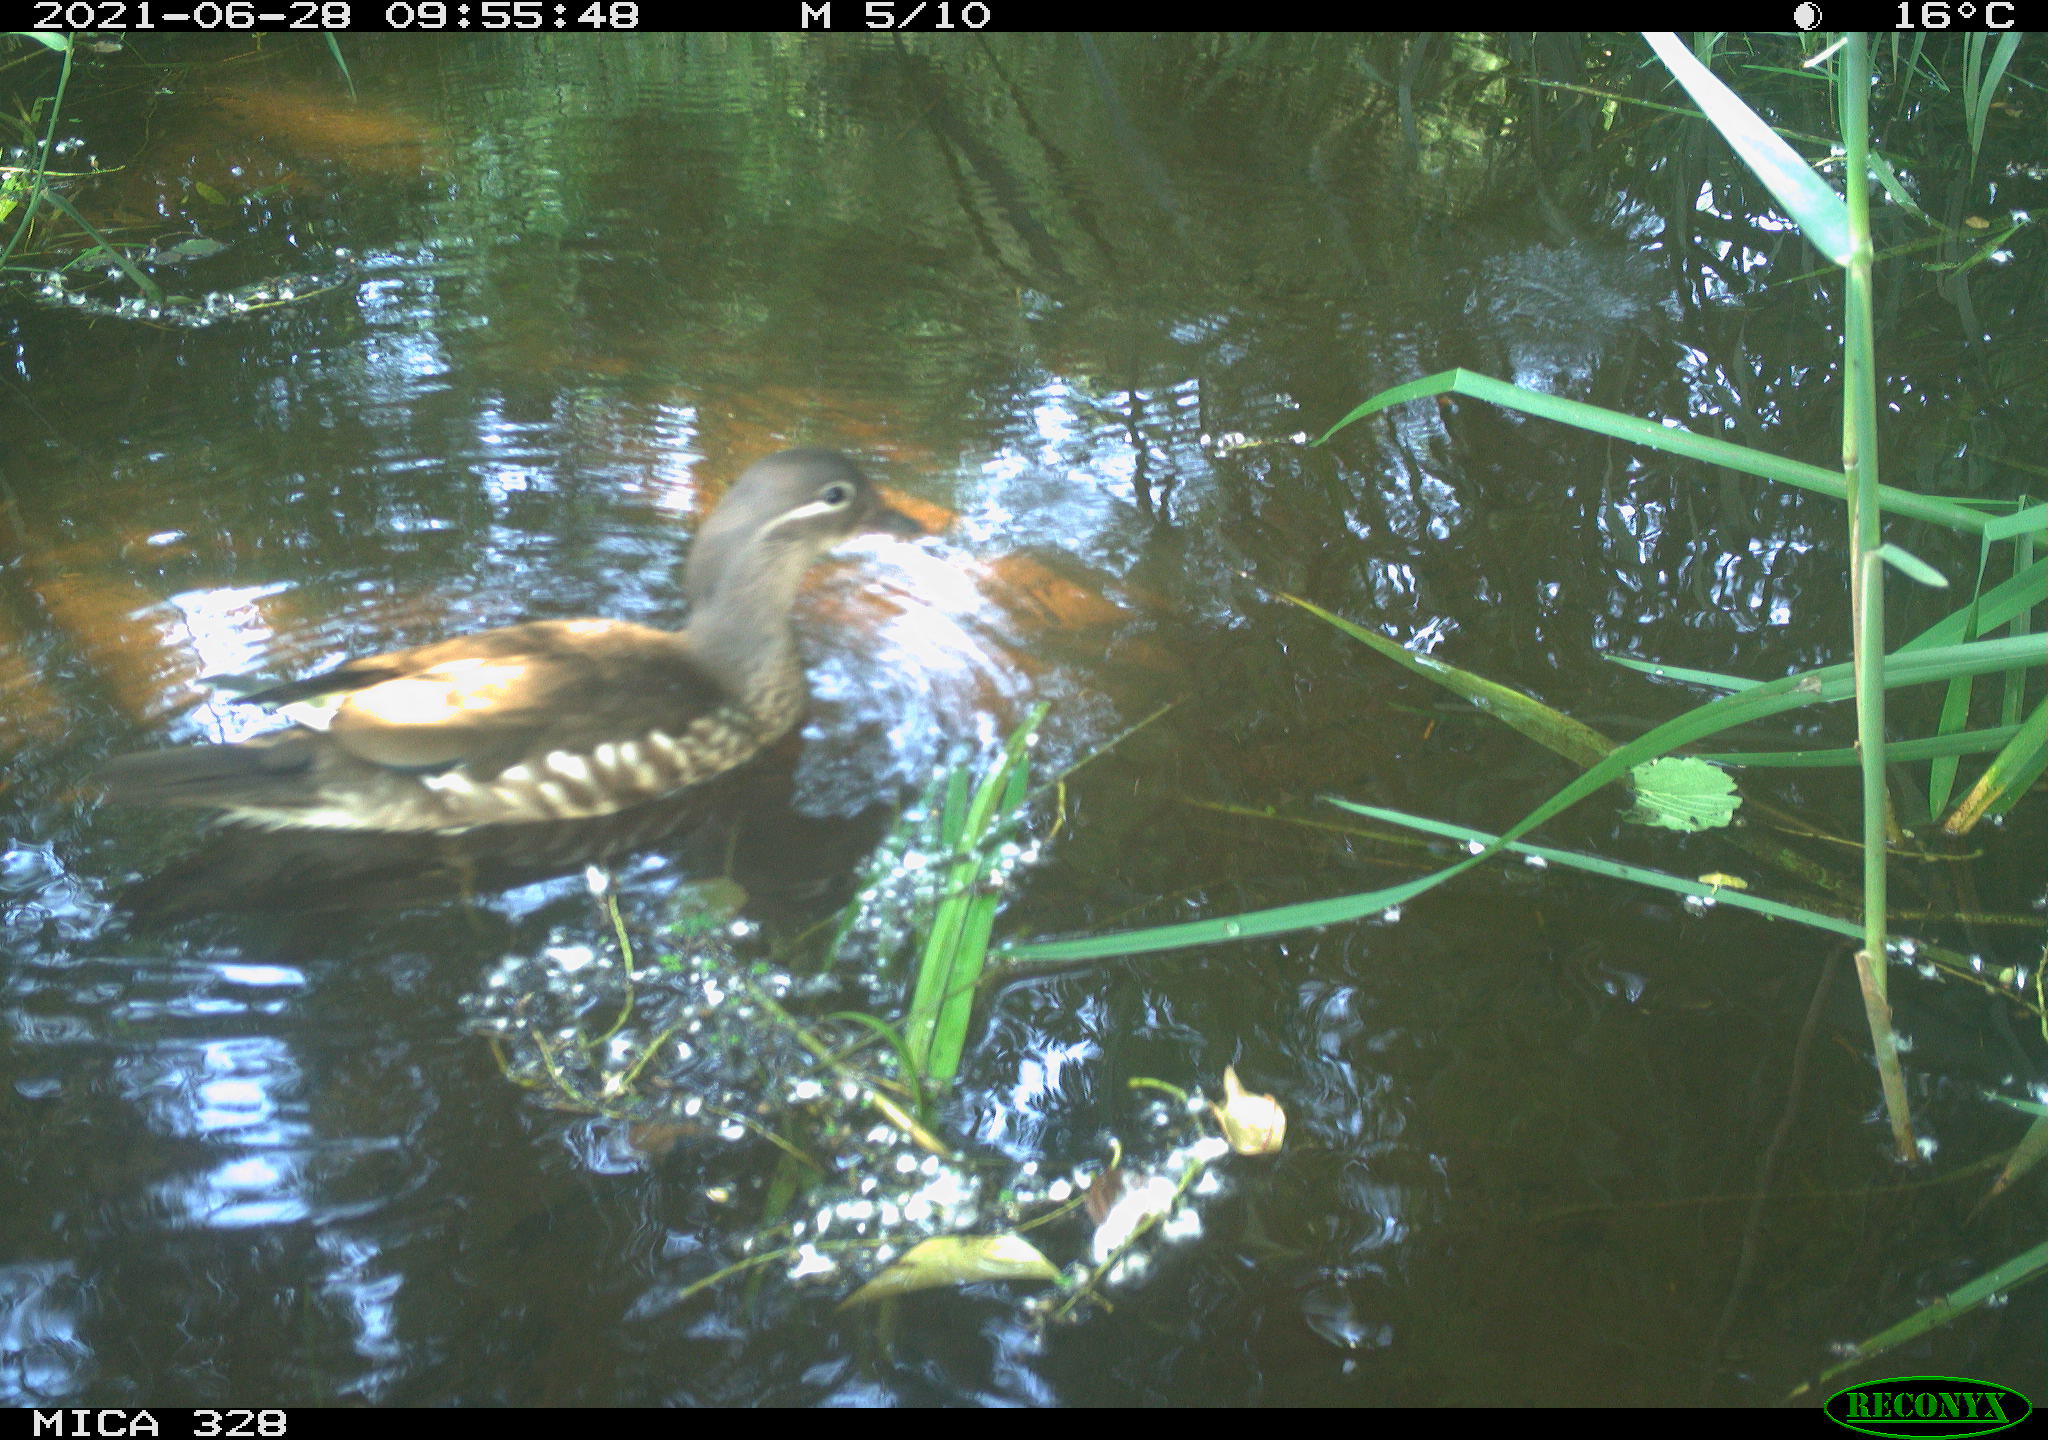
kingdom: Animalia
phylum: Chordata
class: Aves
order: Anseriformes
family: Anatidae
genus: Aix
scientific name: Aix galericulata
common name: Mandarin duck
